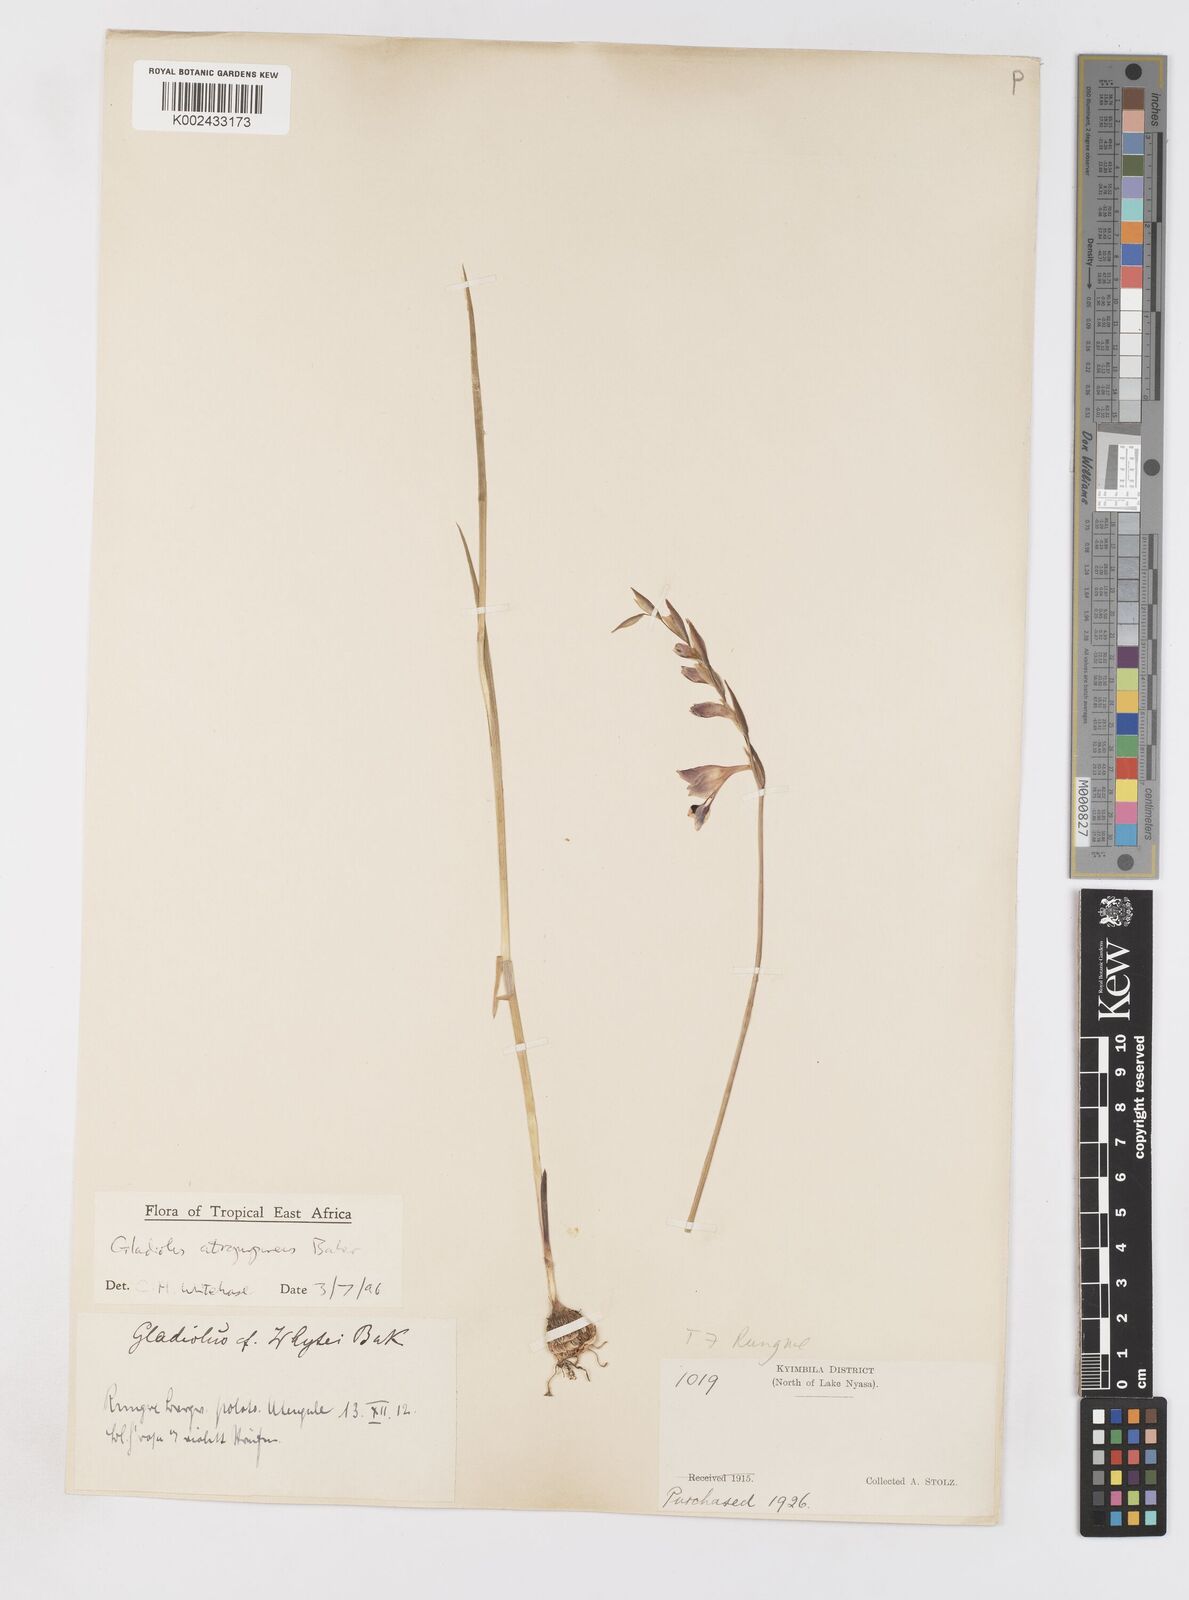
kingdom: Plantae
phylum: Tracheophyta
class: Liliopsida
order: Asparagales
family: Iridaceae
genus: Gladiolus
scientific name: Gladiolus atropurpureus
